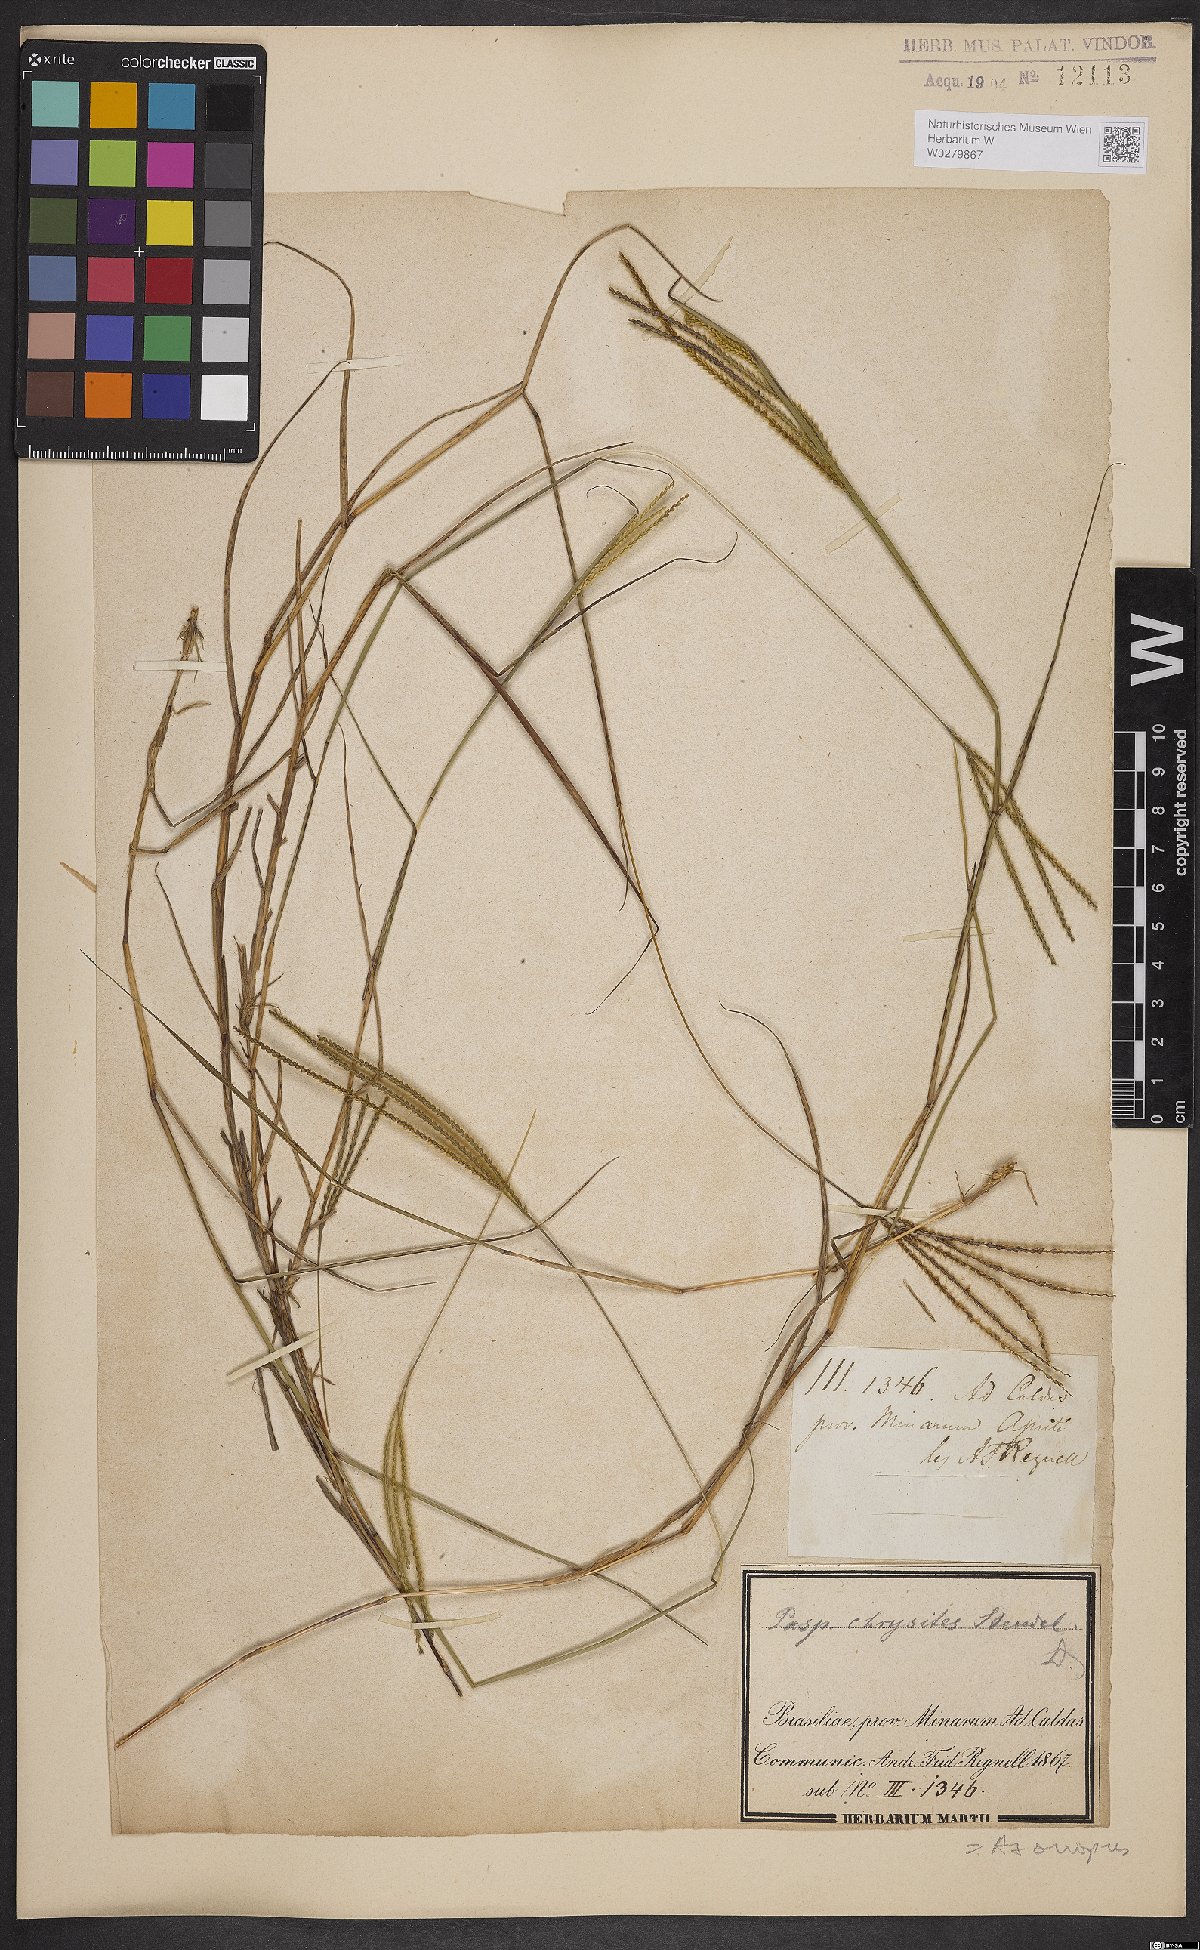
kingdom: Plantae
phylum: Tracheophyta
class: Liliopsida
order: Poales
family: Poaceae
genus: Axonopus
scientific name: Axonopus aureus
